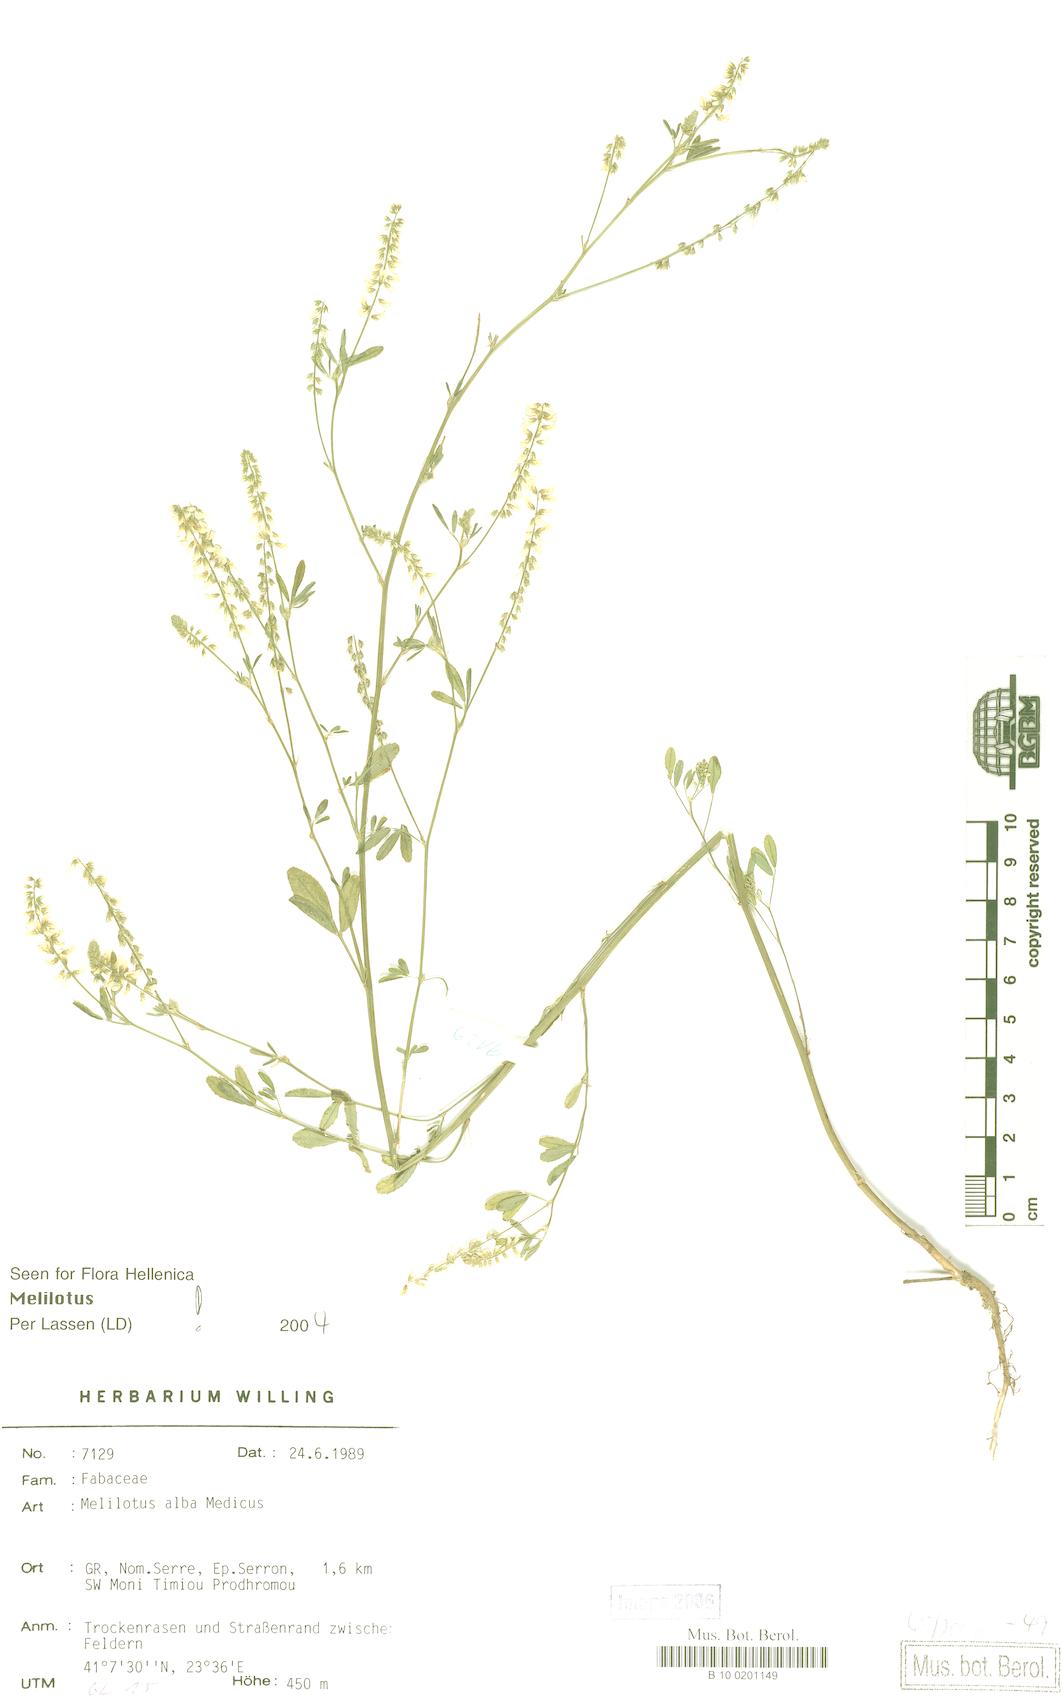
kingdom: Plantae
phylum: Tracheophyta
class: Magnoliopsida
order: Fabales
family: Fabaceae
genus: Melilotus
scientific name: Melilotus albus
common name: White melilot
